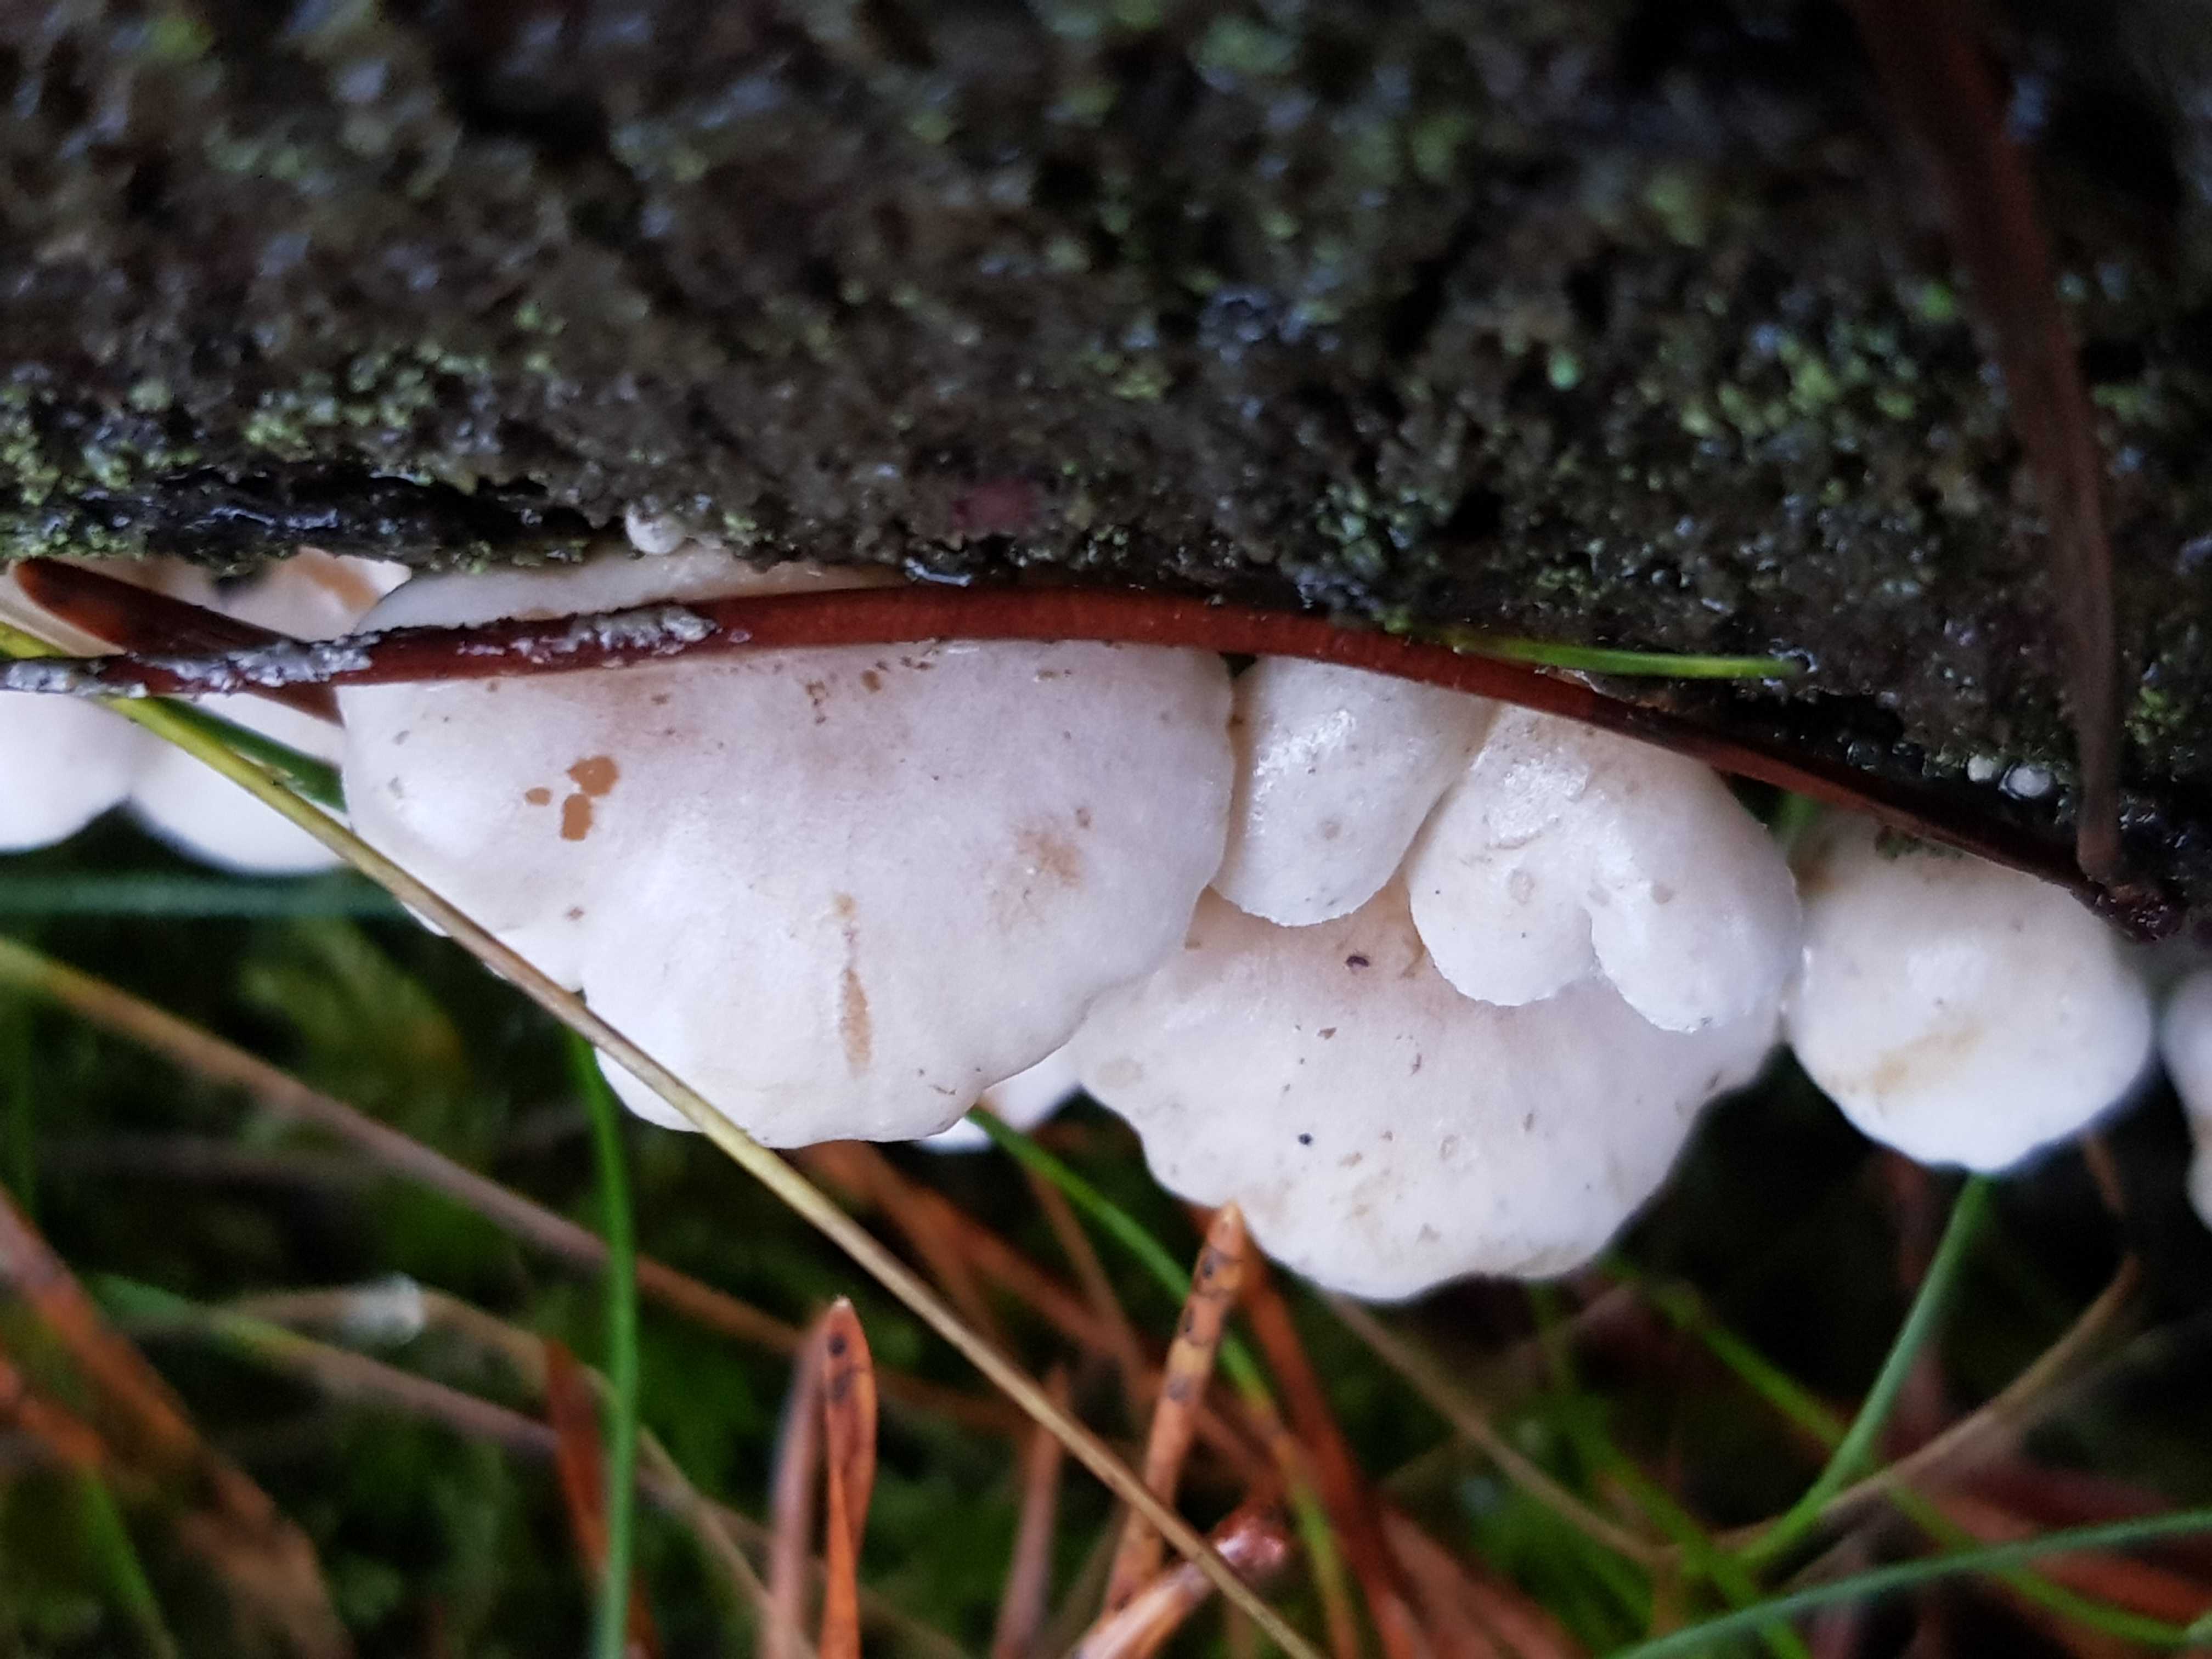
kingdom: Fungi
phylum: Basidiomycota
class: Agaricomycetes
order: Agaricales
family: Mycenaceae
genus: Panellus
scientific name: Panellus mitis
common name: mild epaulethat
